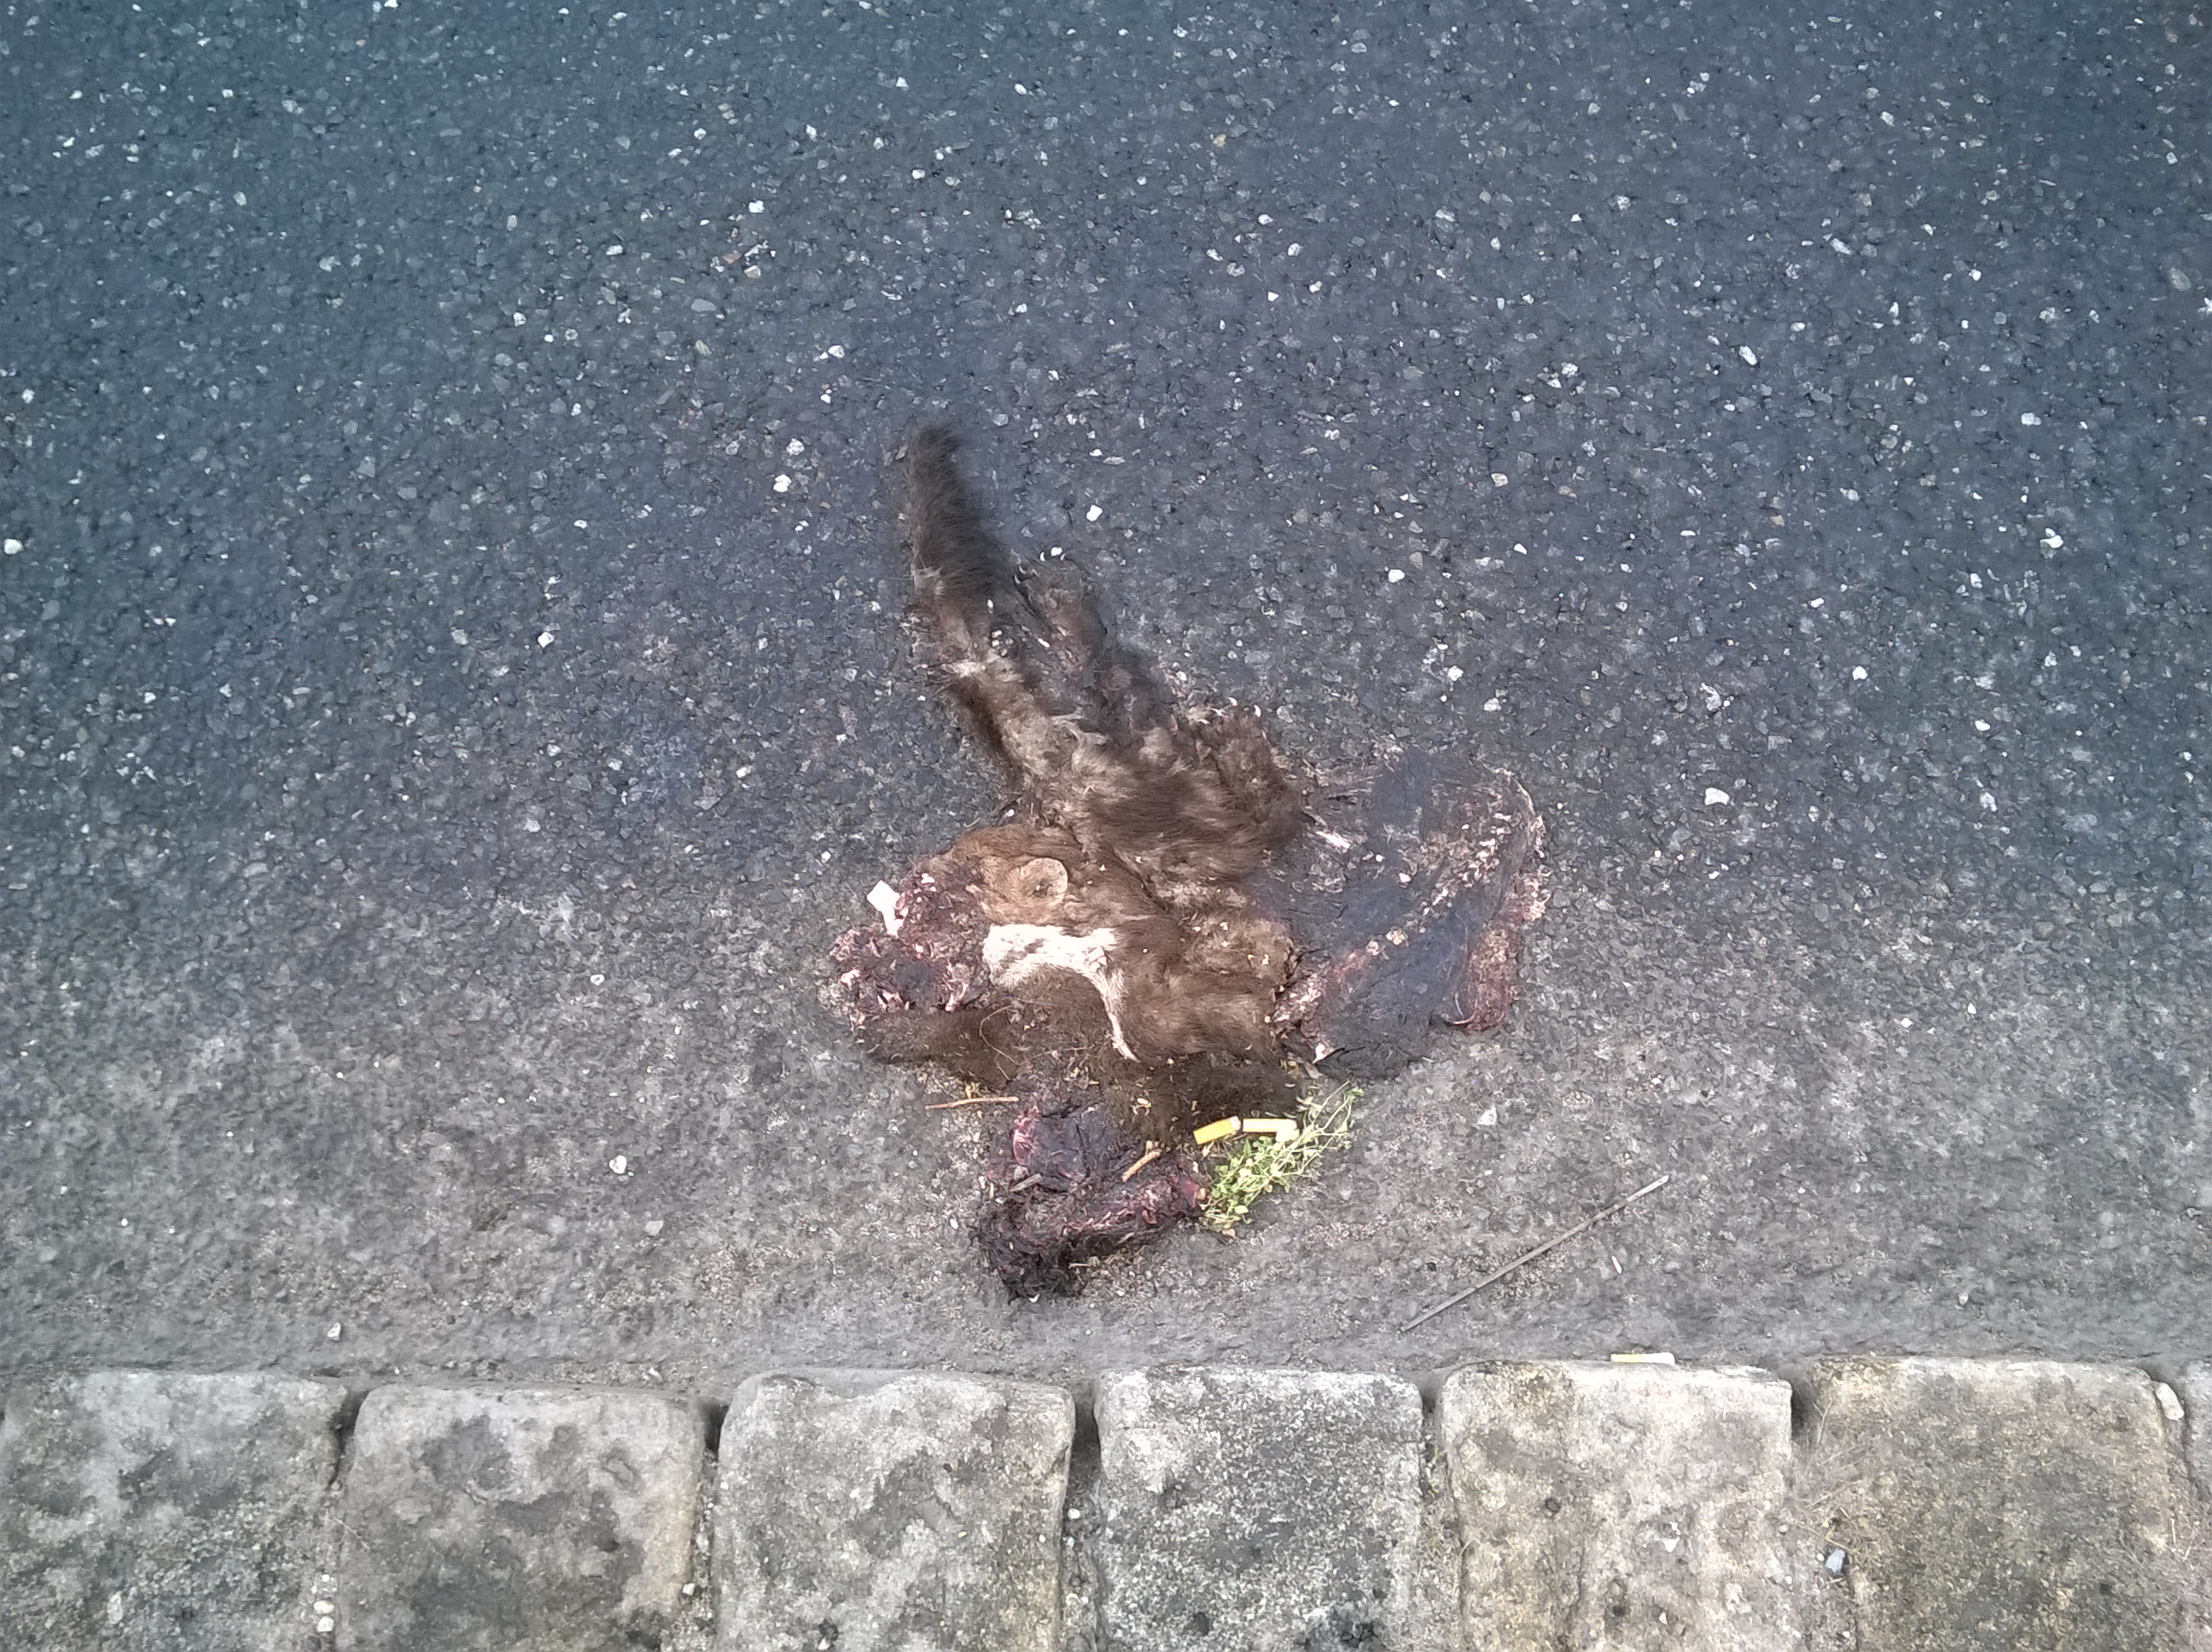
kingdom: Animalia
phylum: Chordata
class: Mammalia
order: Carnivora
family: Mustelidae
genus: Martes
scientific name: Martes foina
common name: Beech marten
